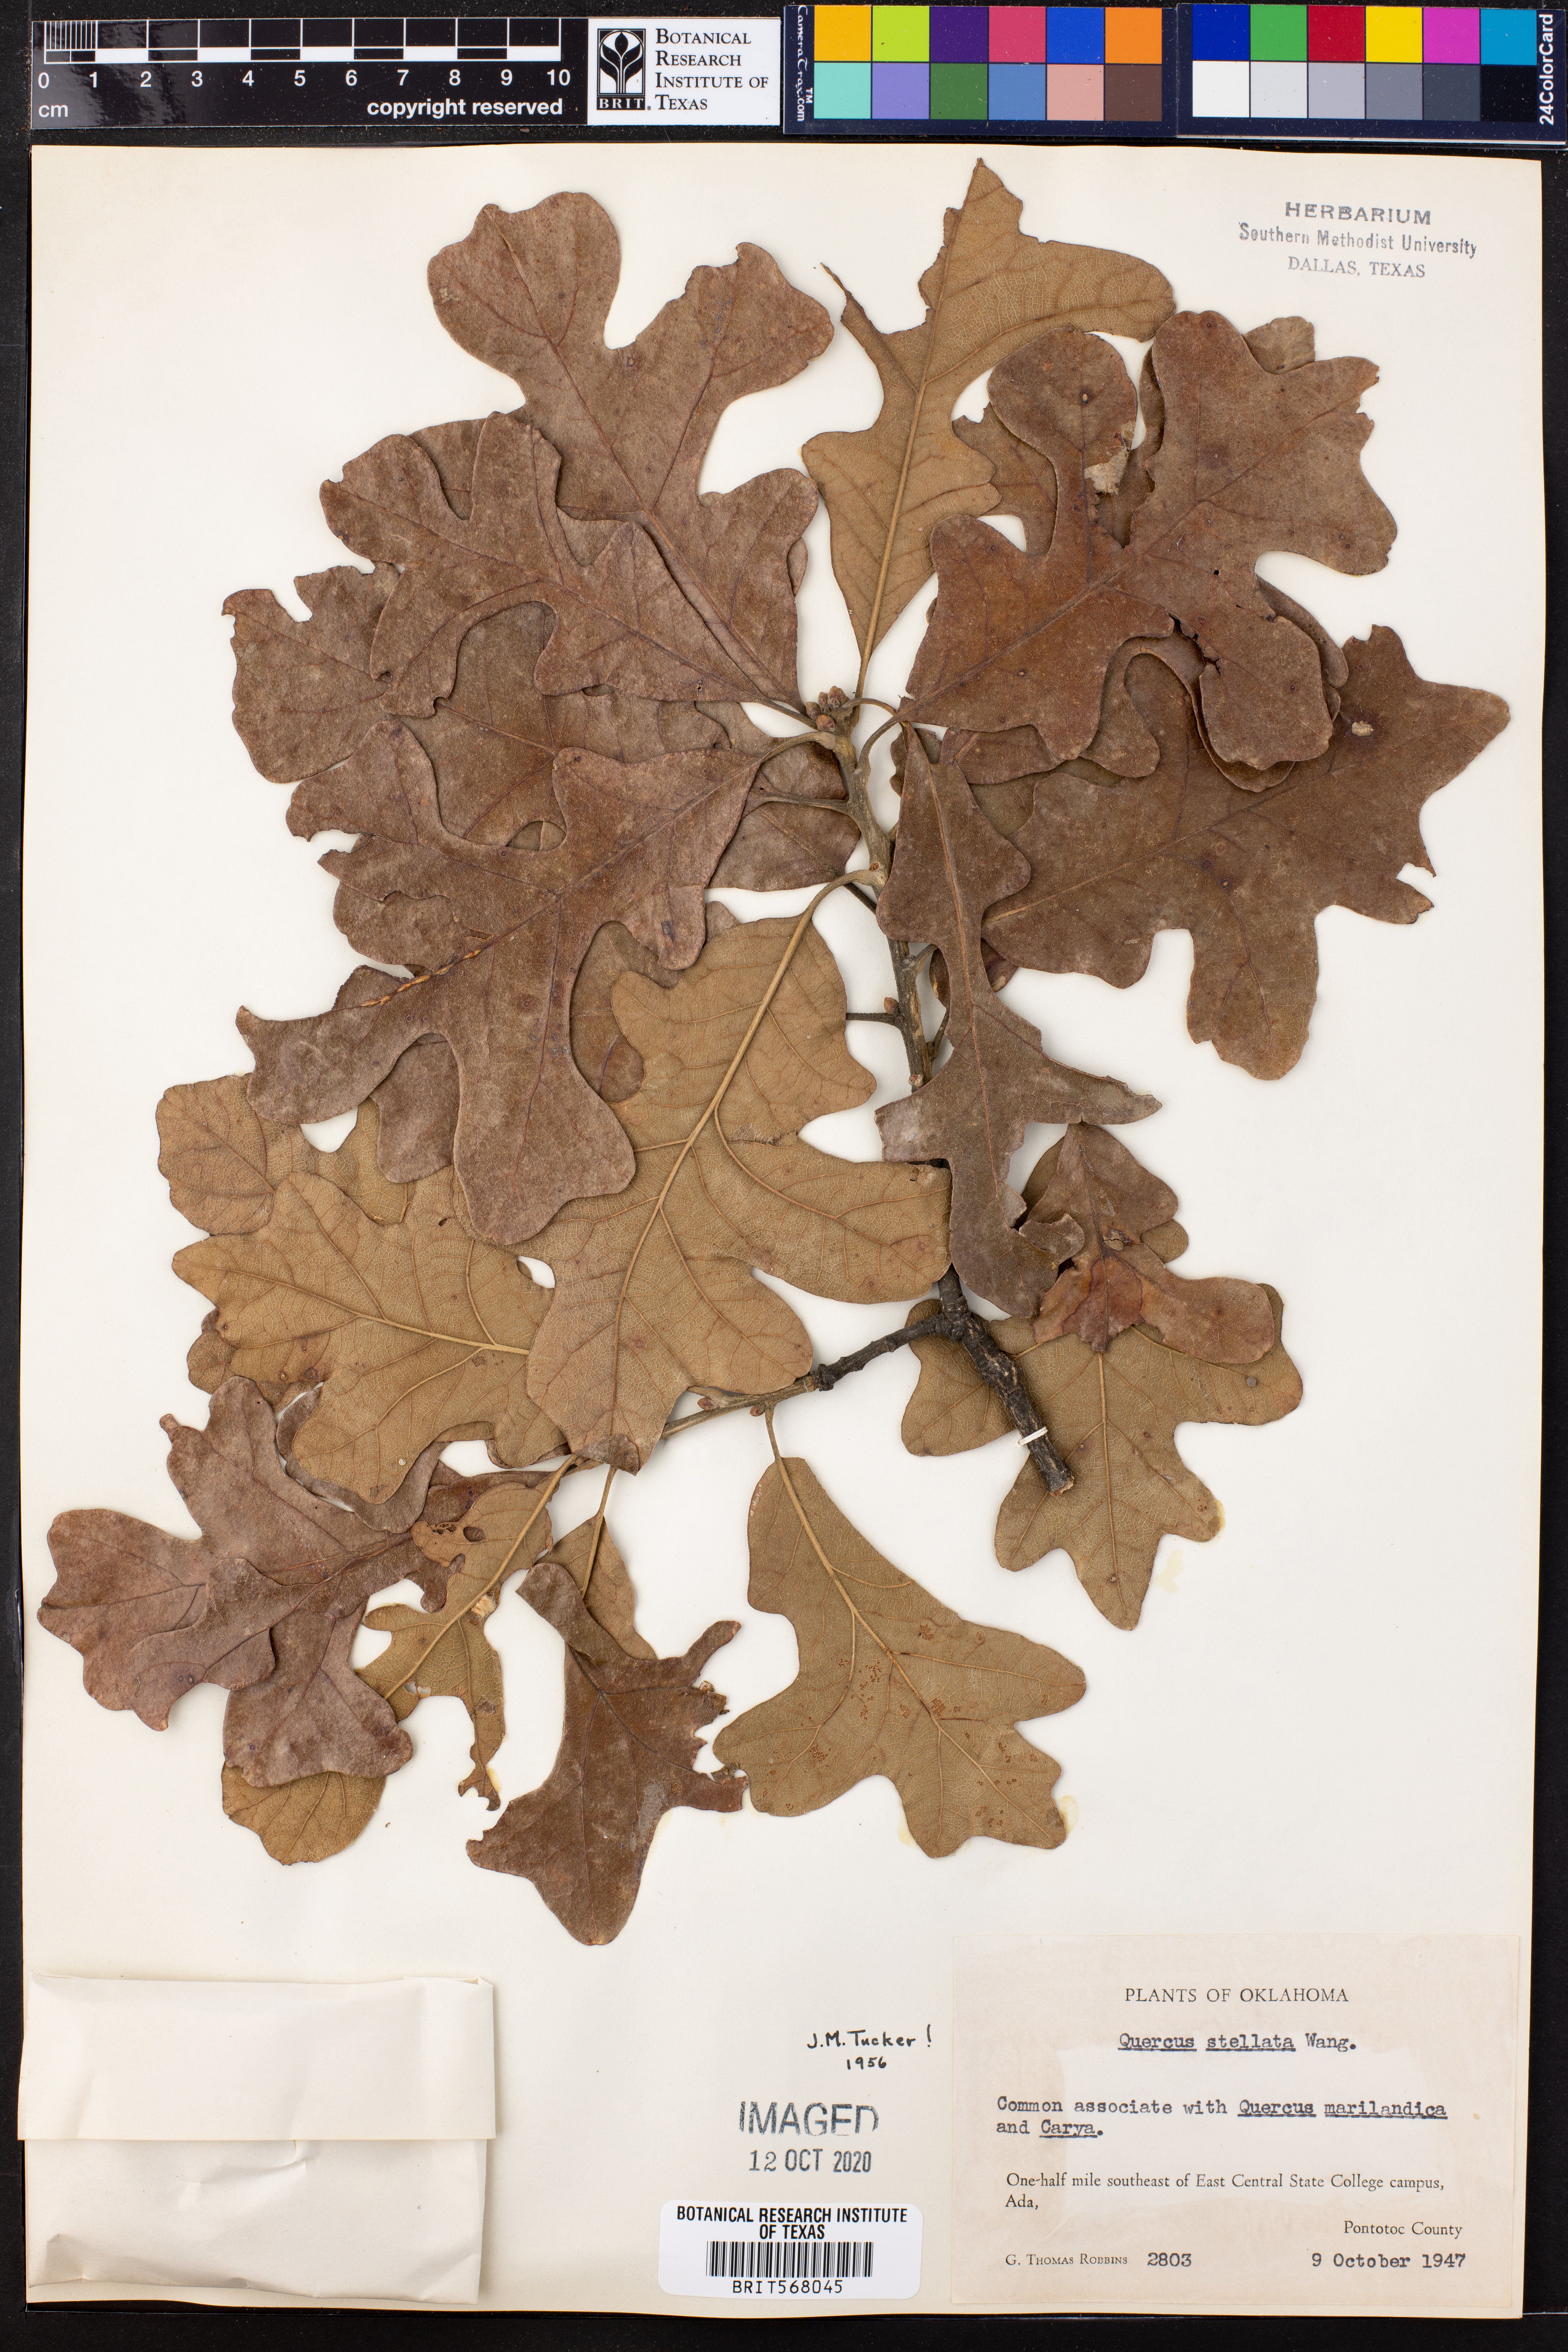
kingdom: Plantae
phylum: Tracheophyta
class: Magnoliopsida
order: Fagales
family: Fagaceae
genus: Quercus
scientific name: Quercus stellata
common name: Post oak
